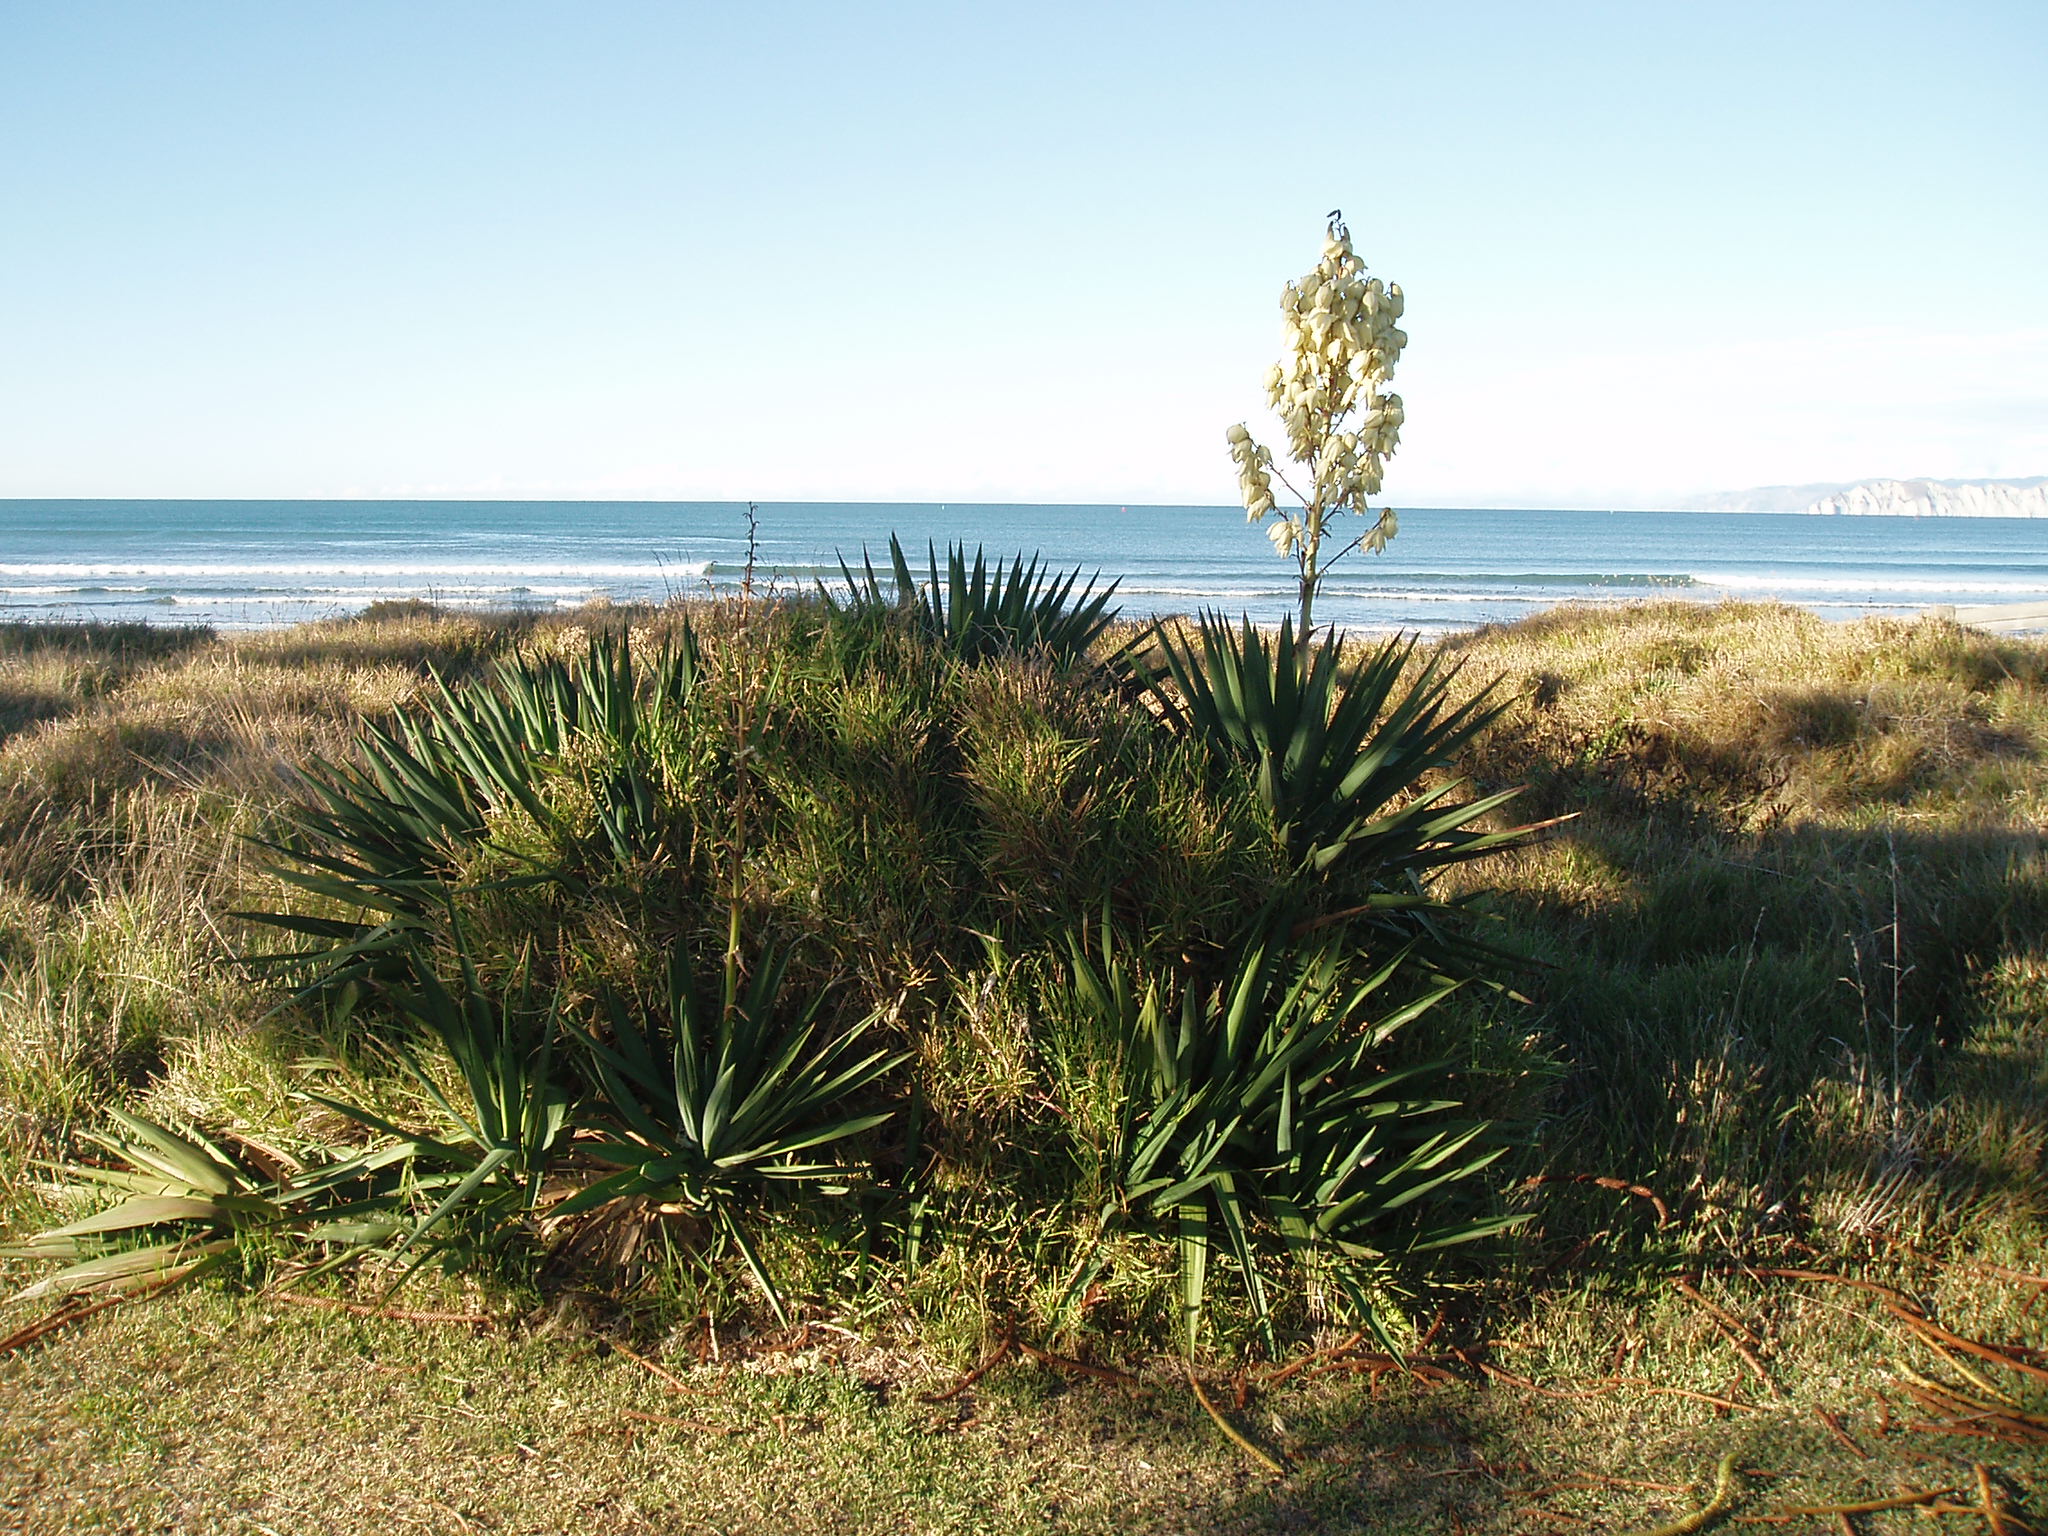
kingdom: Plantae
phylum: Tracheophyta
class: Liliopsida
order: Asparagales
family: Asparagaceae
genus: Yucca
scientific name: Yucca gloriosa
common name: Spanish-dagger
